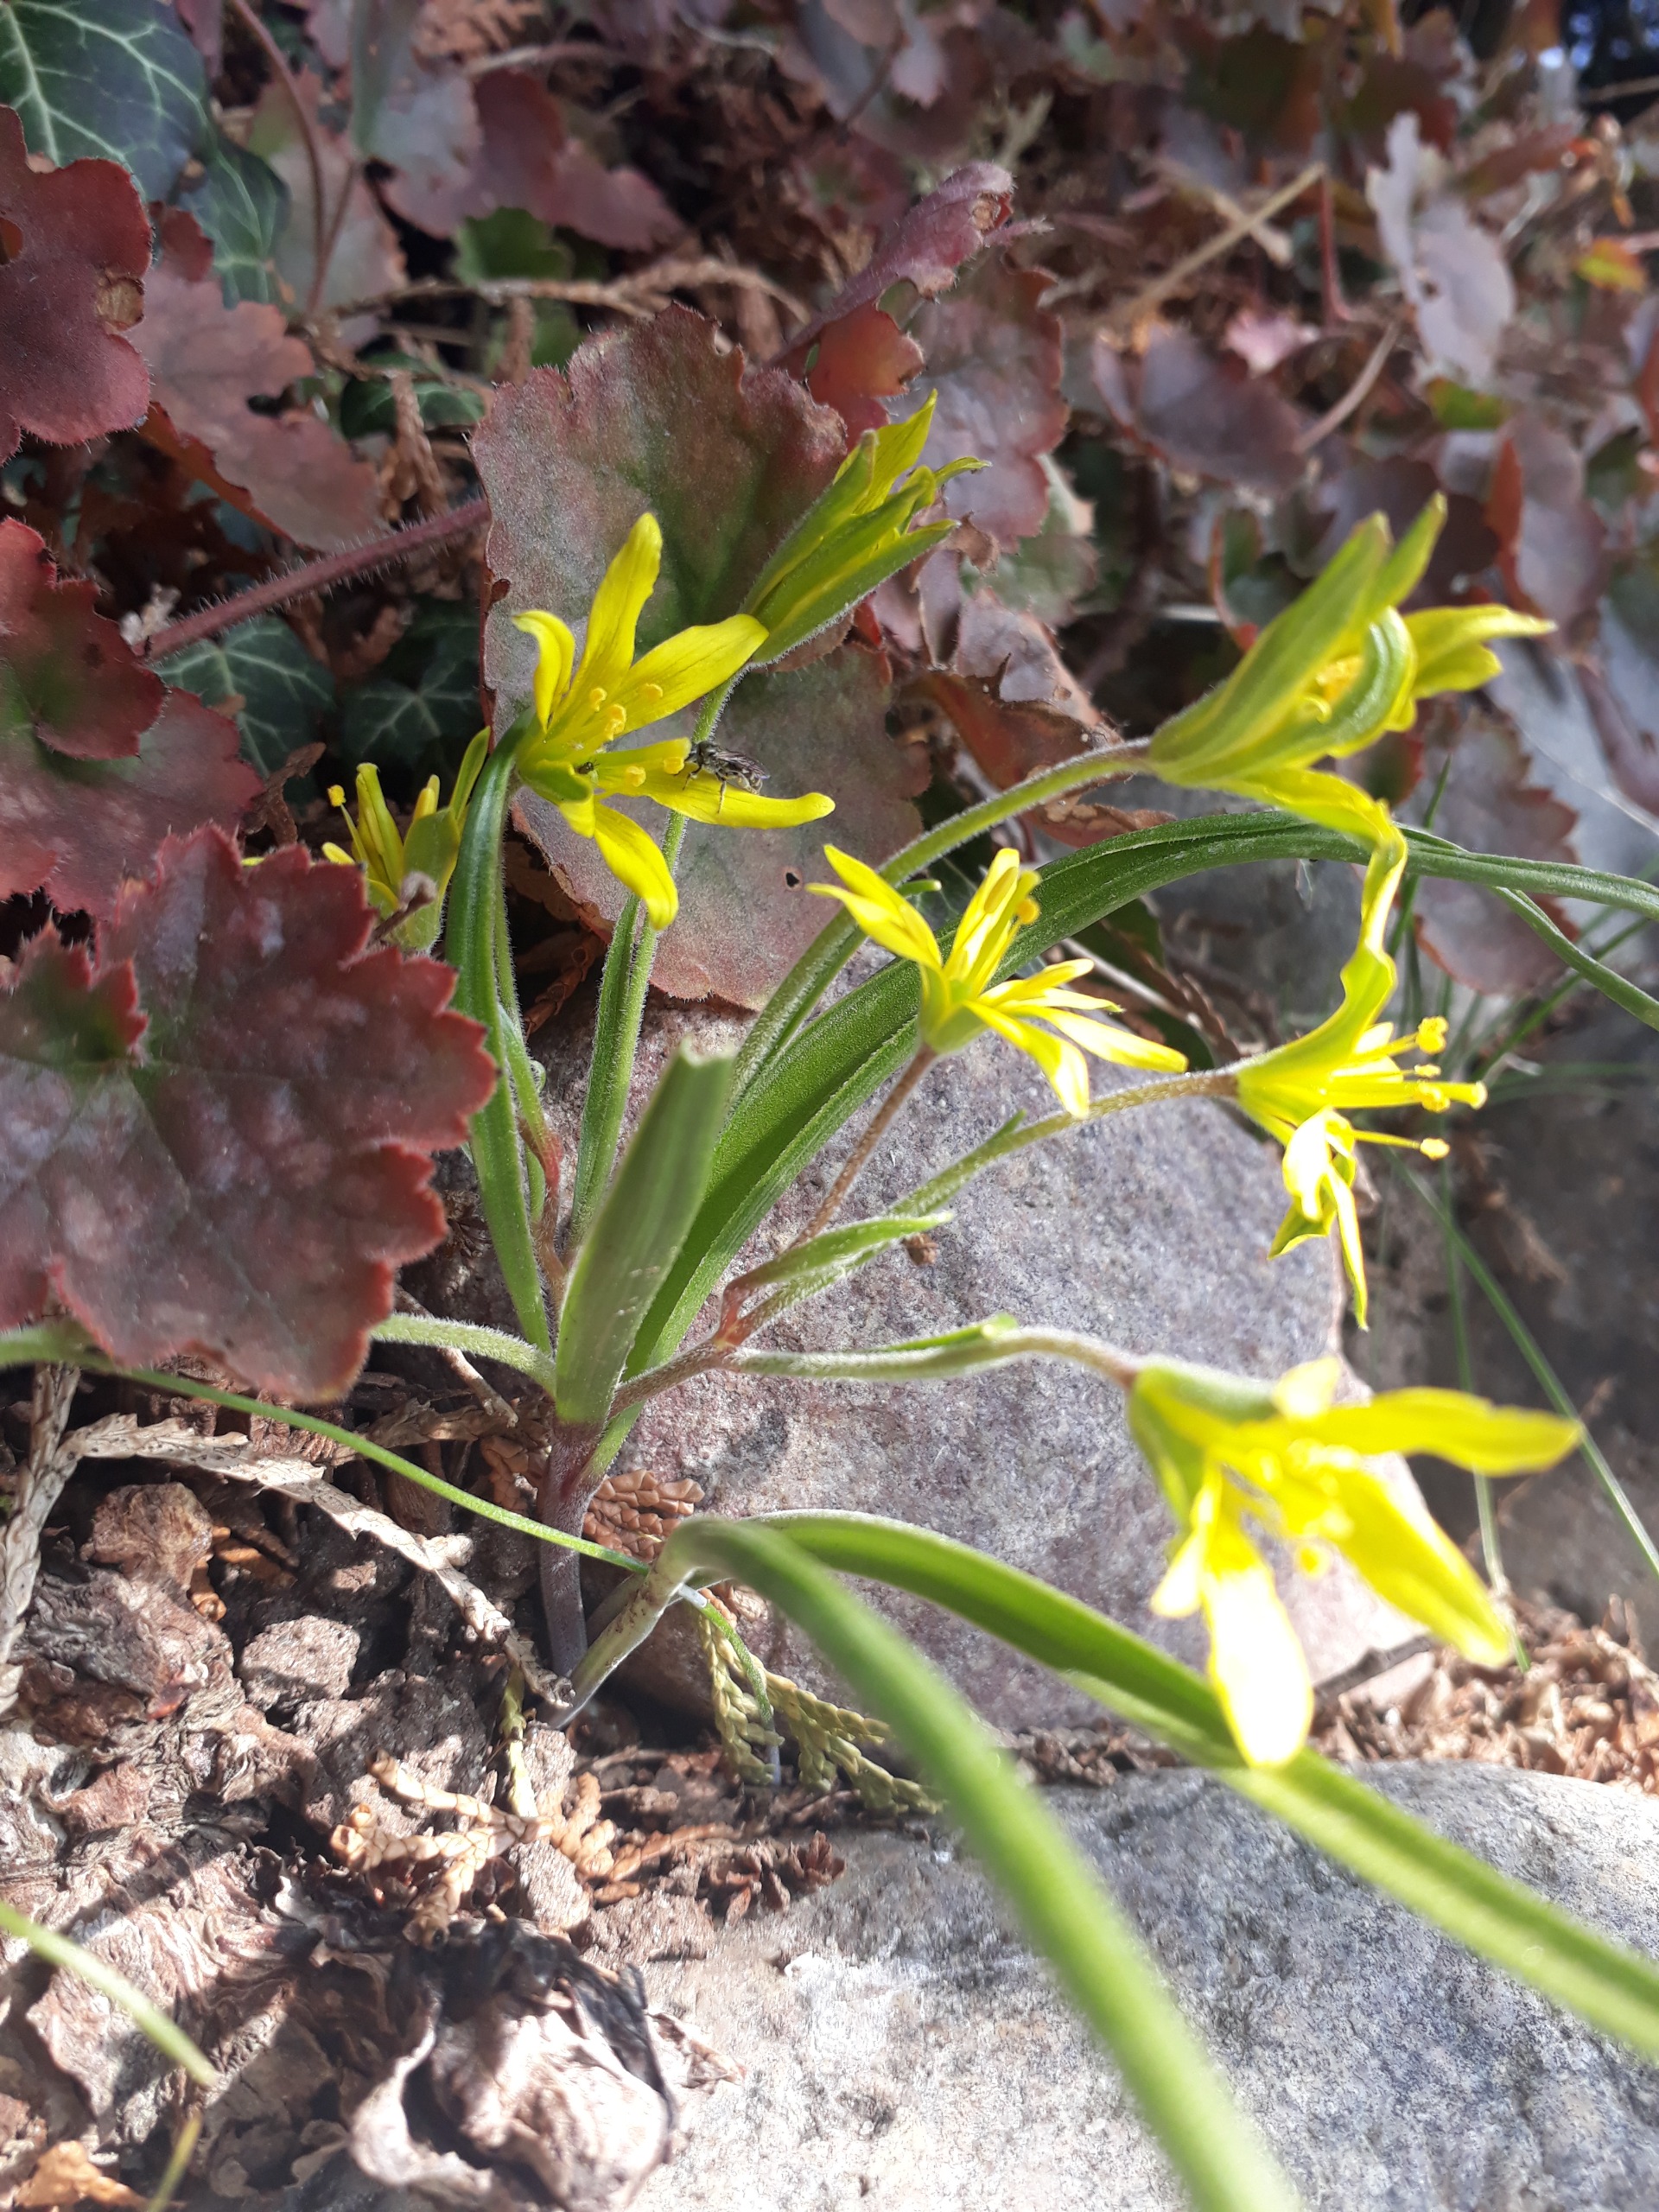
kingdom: Plantae
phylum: Tracheophyta
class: Liliopsida
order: Liliales
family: Liliaceae
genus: Gagea
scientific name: Gagea villosa
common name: Ager-guldstjerne
